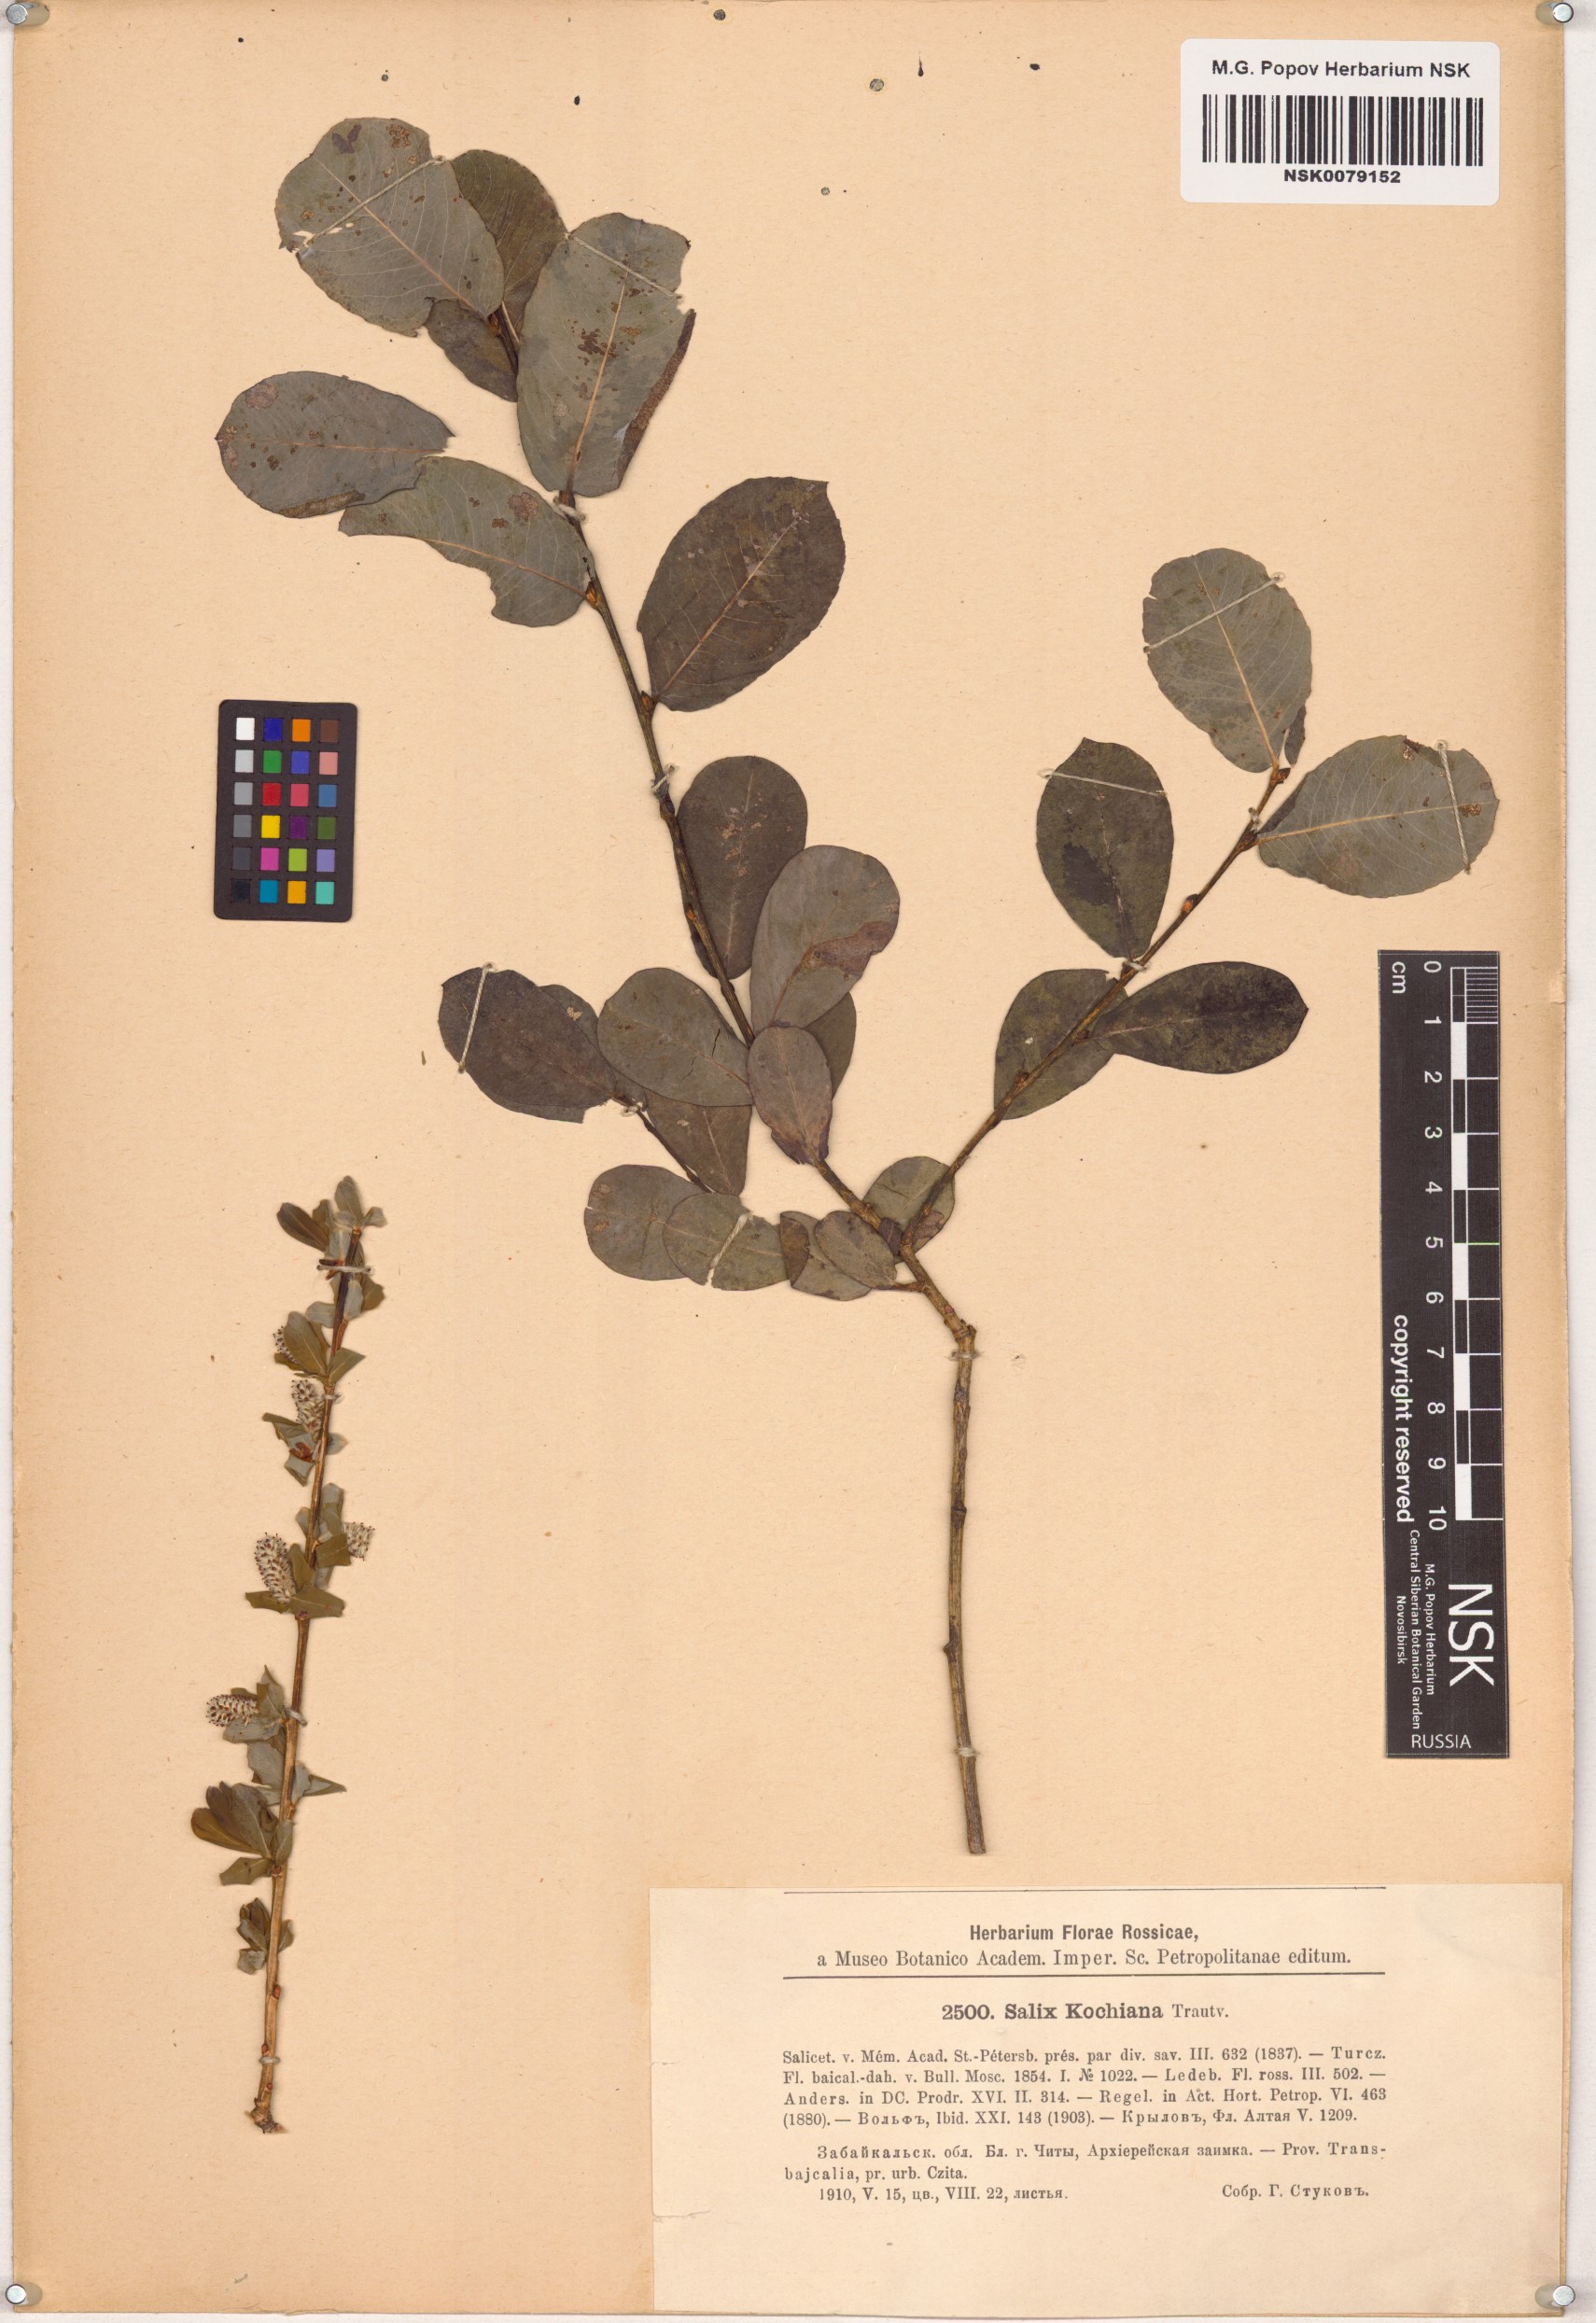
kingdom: Plantae
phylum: Tracheophyta
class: Magnoliopsida
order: Malpighiales
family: Salicaceae
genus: Salix
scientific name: Salix kochiana
